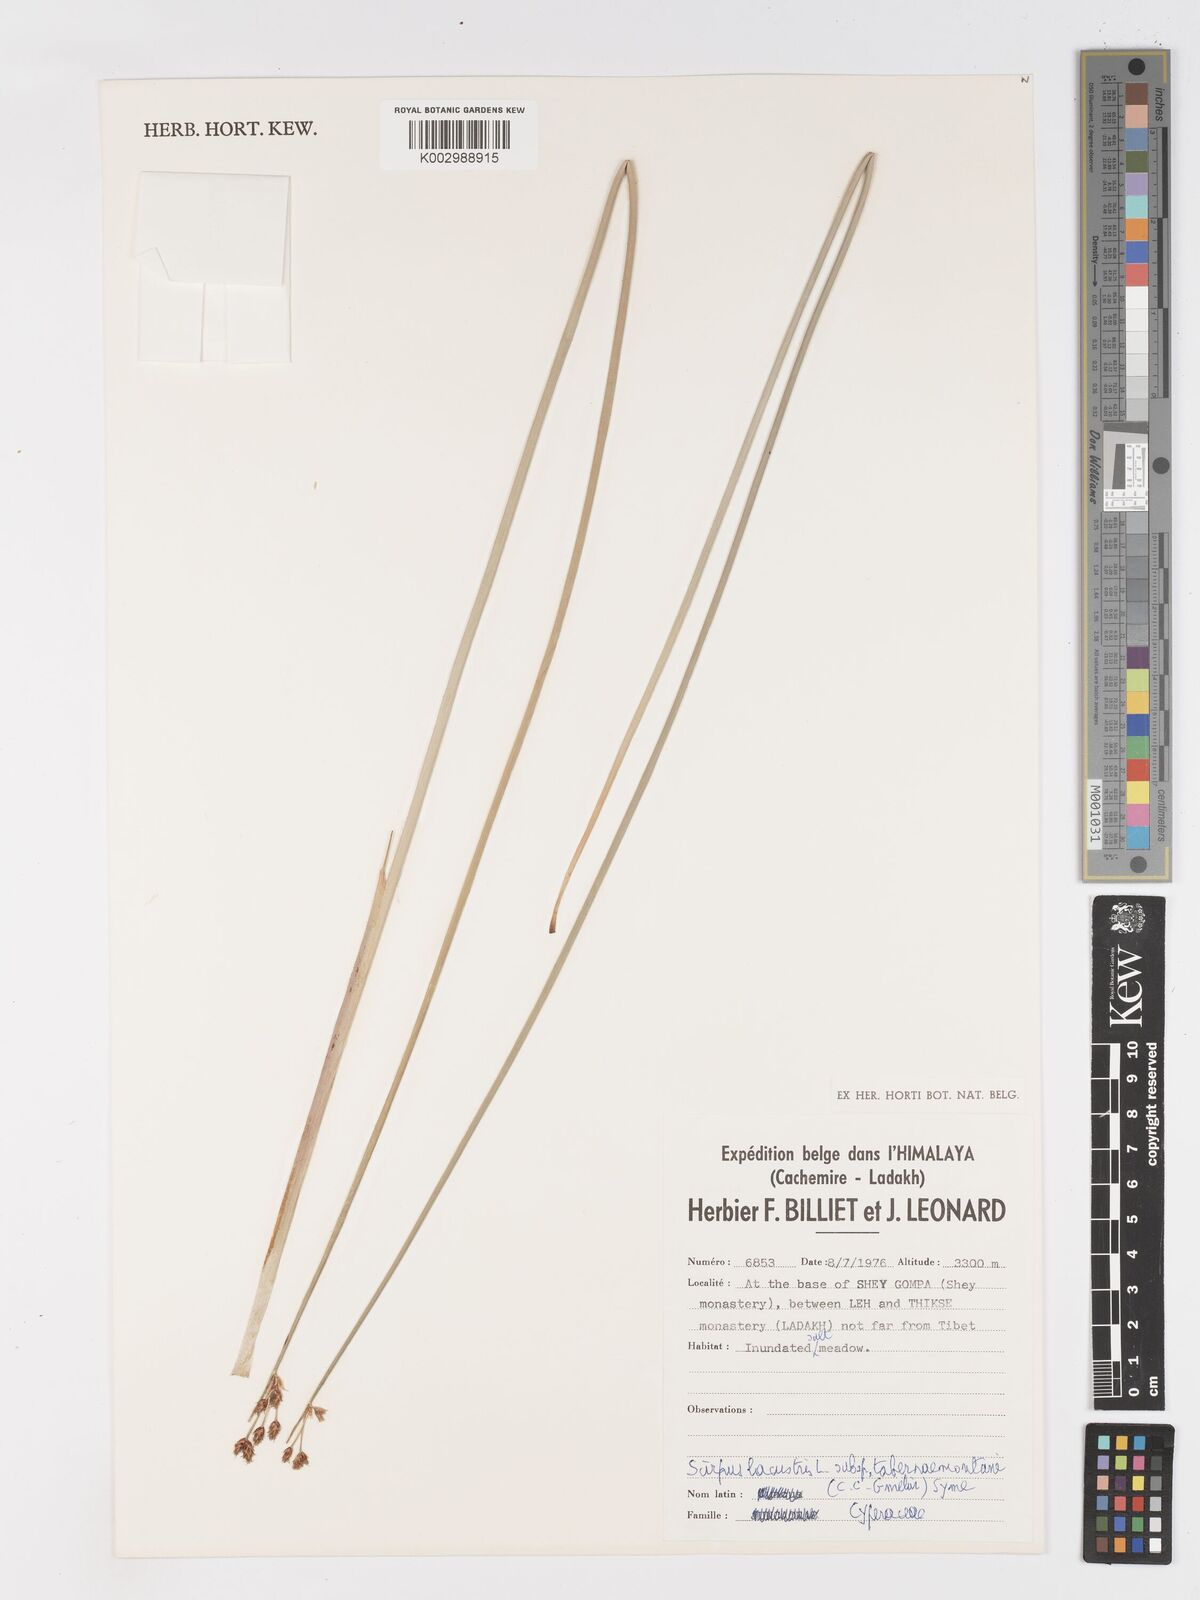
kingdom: Plantae
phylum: Tracheophyta
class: Liliopsida
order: Poales
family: Cyperaceae
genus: Schoenoplectus
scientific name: Schoenoplectus tabernaemontani
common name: Grey club-rush
